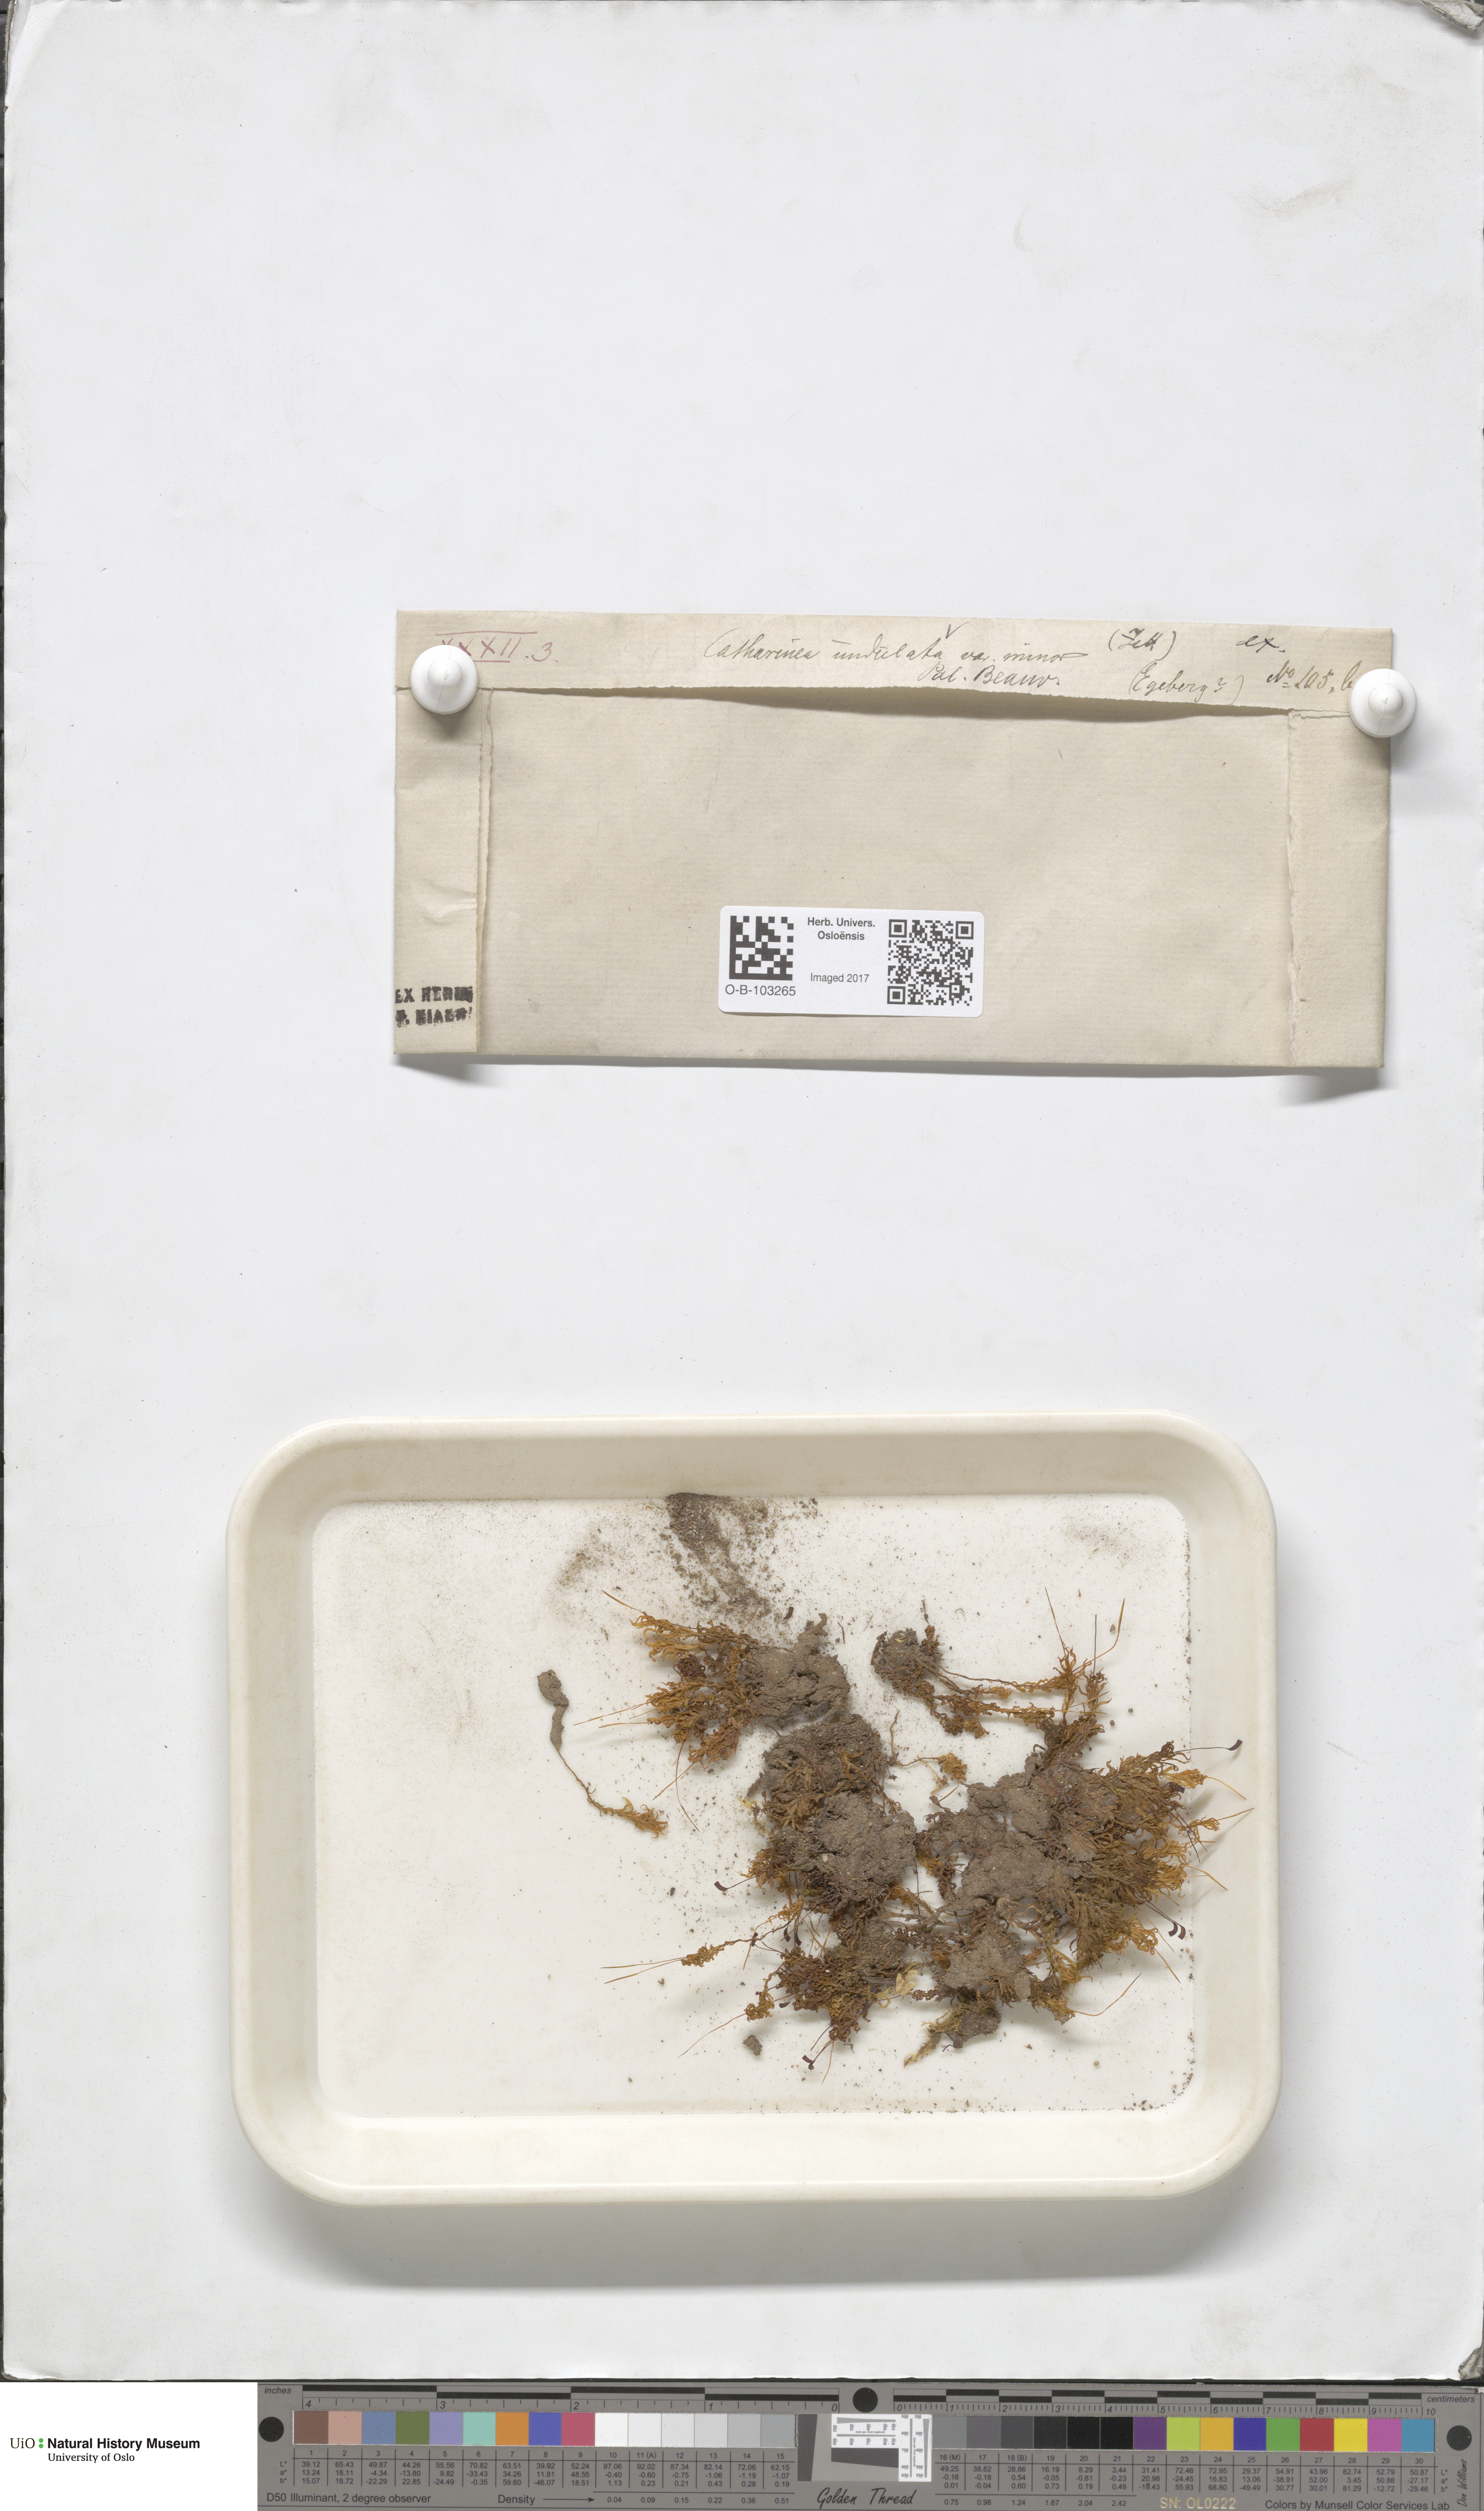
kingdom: Plantae
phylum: Bryophyta
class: Polytrichopsida
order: Polytrichales
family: Polytrichaceae
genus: Atrichum
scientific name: Atrichum undulatum
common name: Common smoothcap
